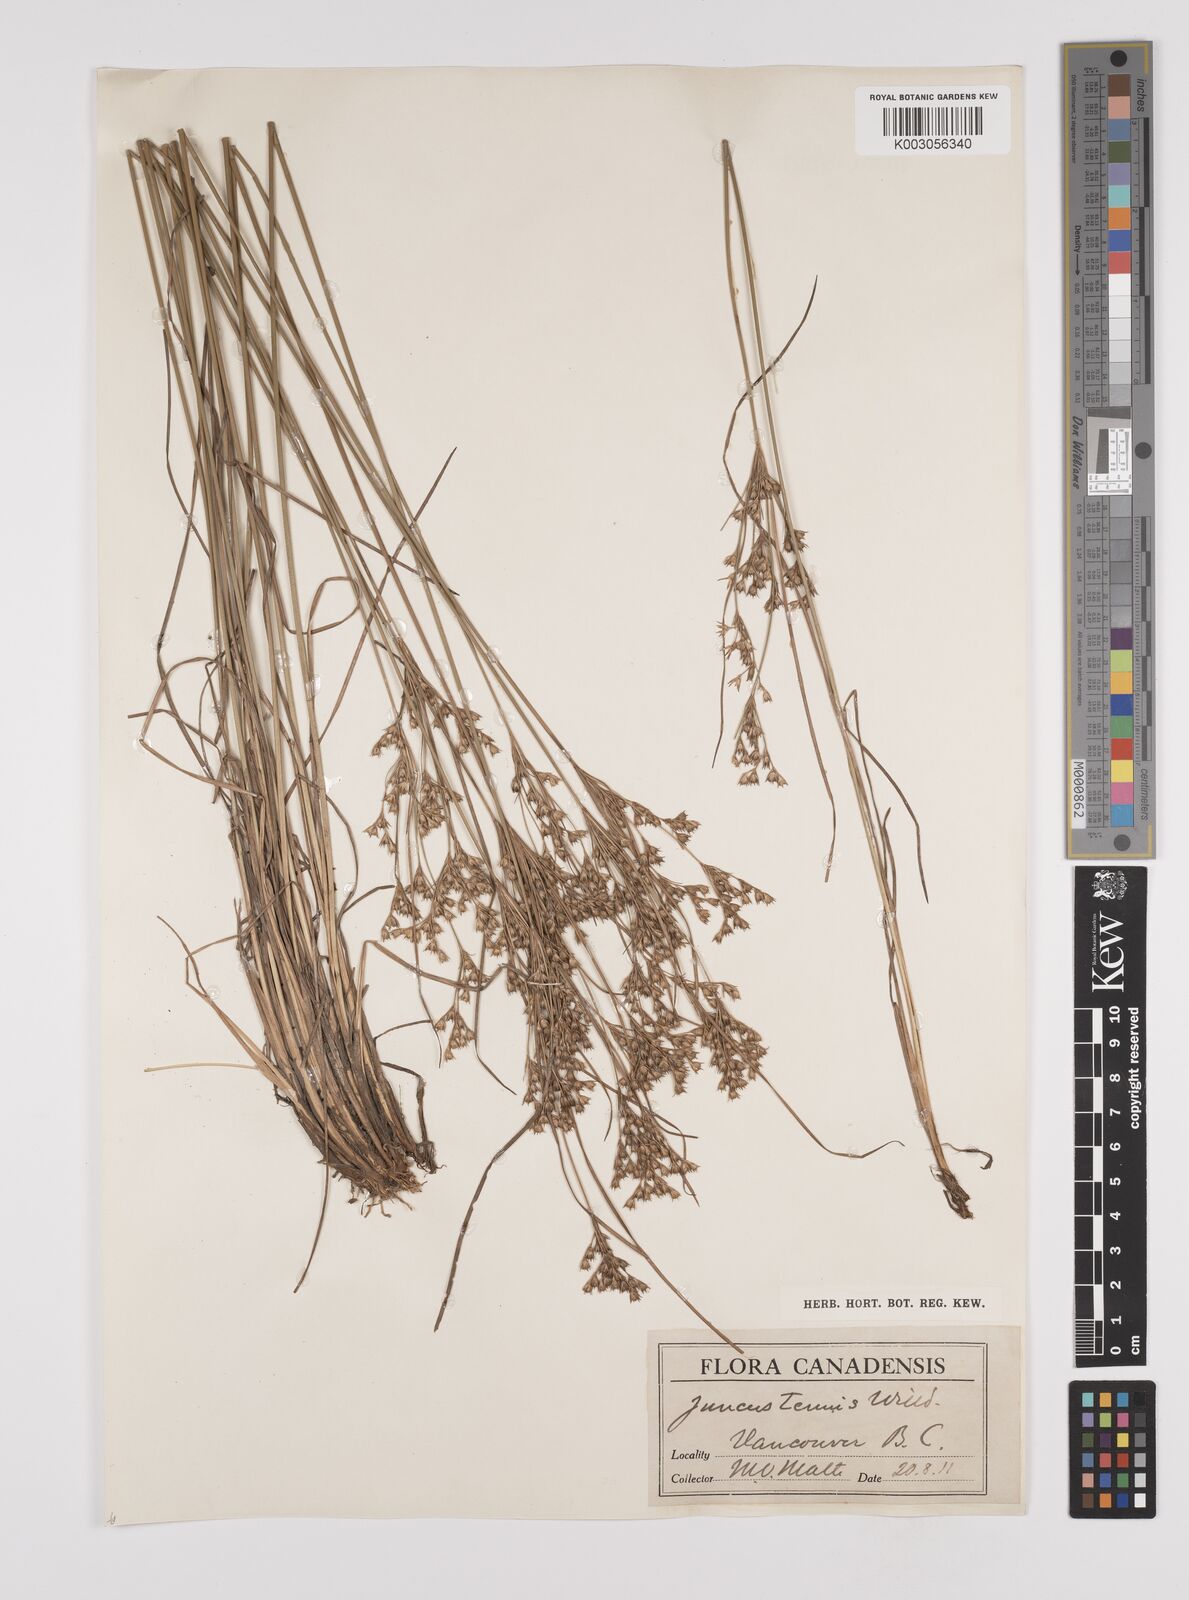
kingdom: Plantae
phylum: Tracheophyta
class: Liliopsida
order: Poales
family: Juncaceae
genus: Juncus
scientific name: Juncus tenuis
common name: Slender rush
